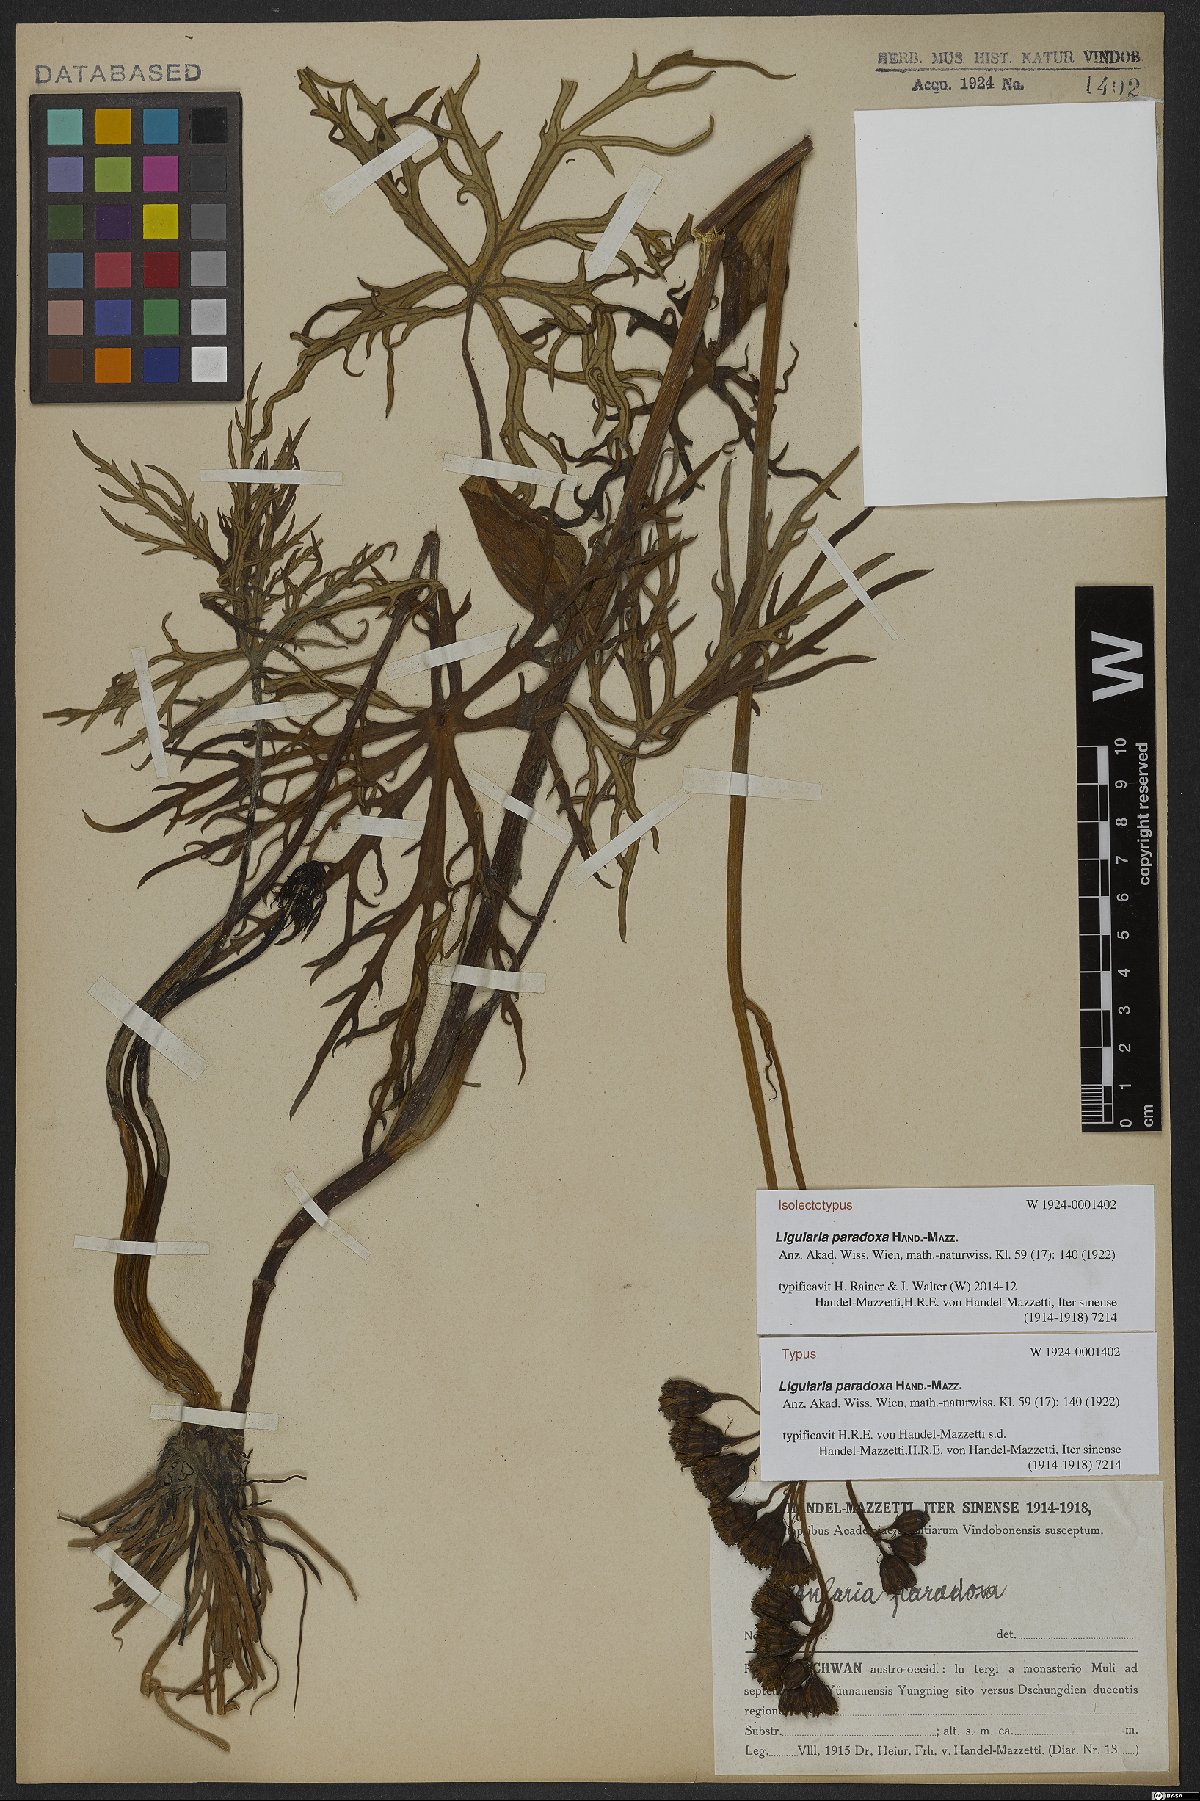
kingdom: Plantae
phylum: Tracheophyta
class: Magnoliopsida
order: Asterales
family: Asteraceae
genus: Ligularia
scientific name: Ligularia paradoxa
